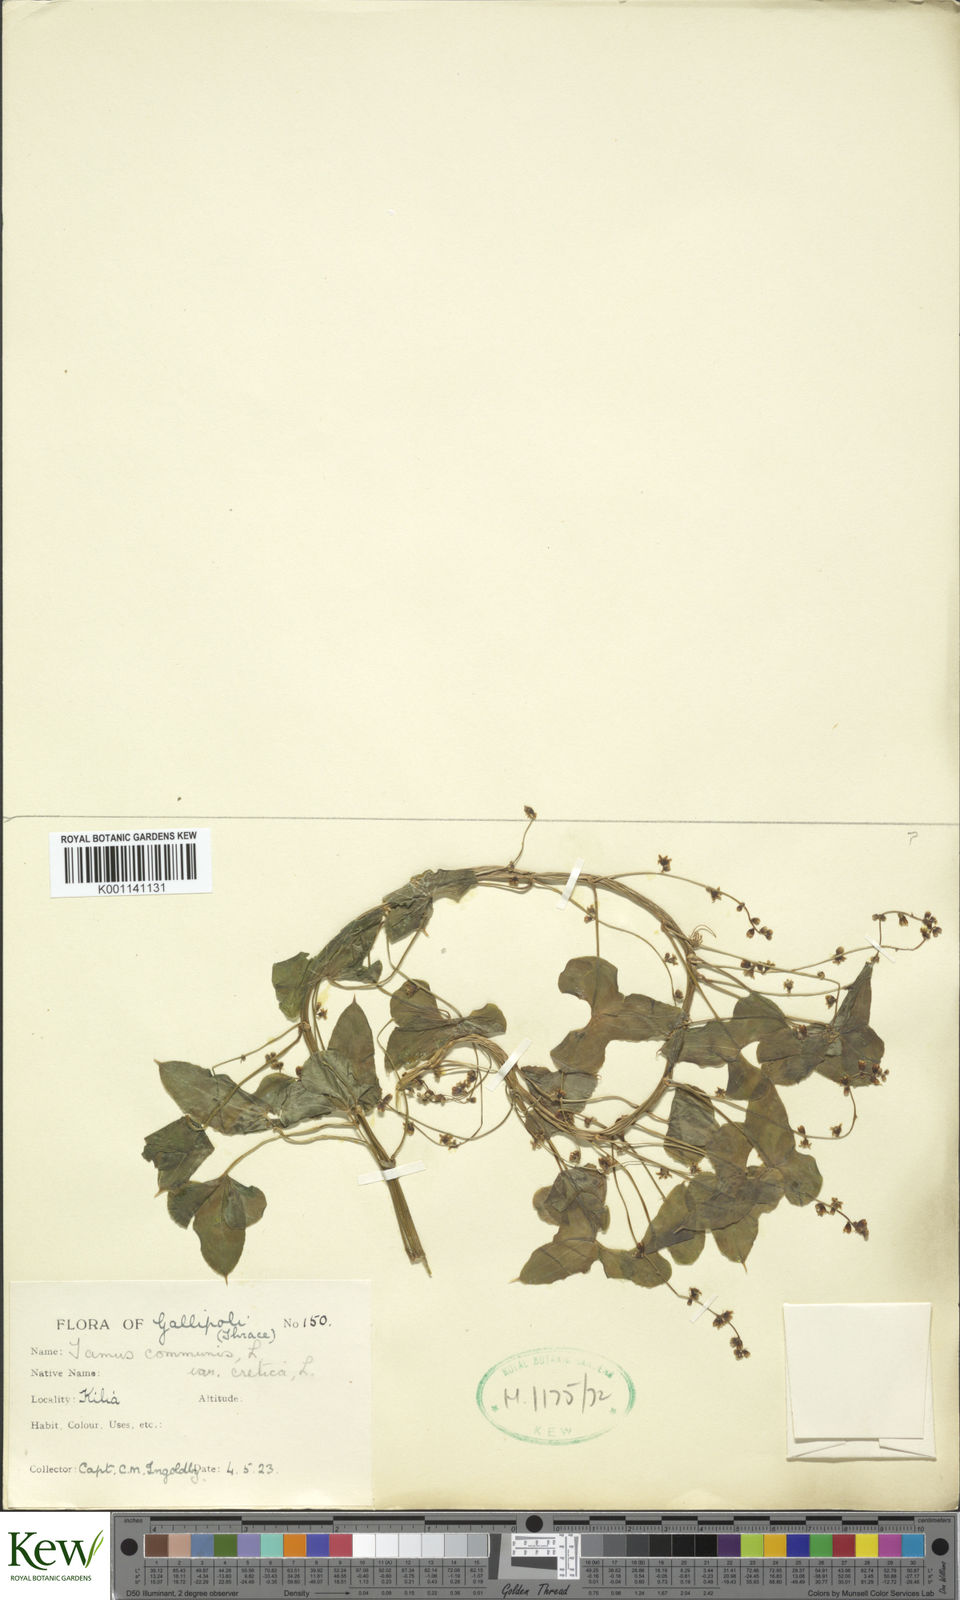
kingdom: Plantae
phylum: Tracheophyta
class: Liliopsida
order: Dioscoreales
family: Dioscoreaceae
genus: Dioscorea
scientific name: Dioscorea communis
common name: Black-bindweed
